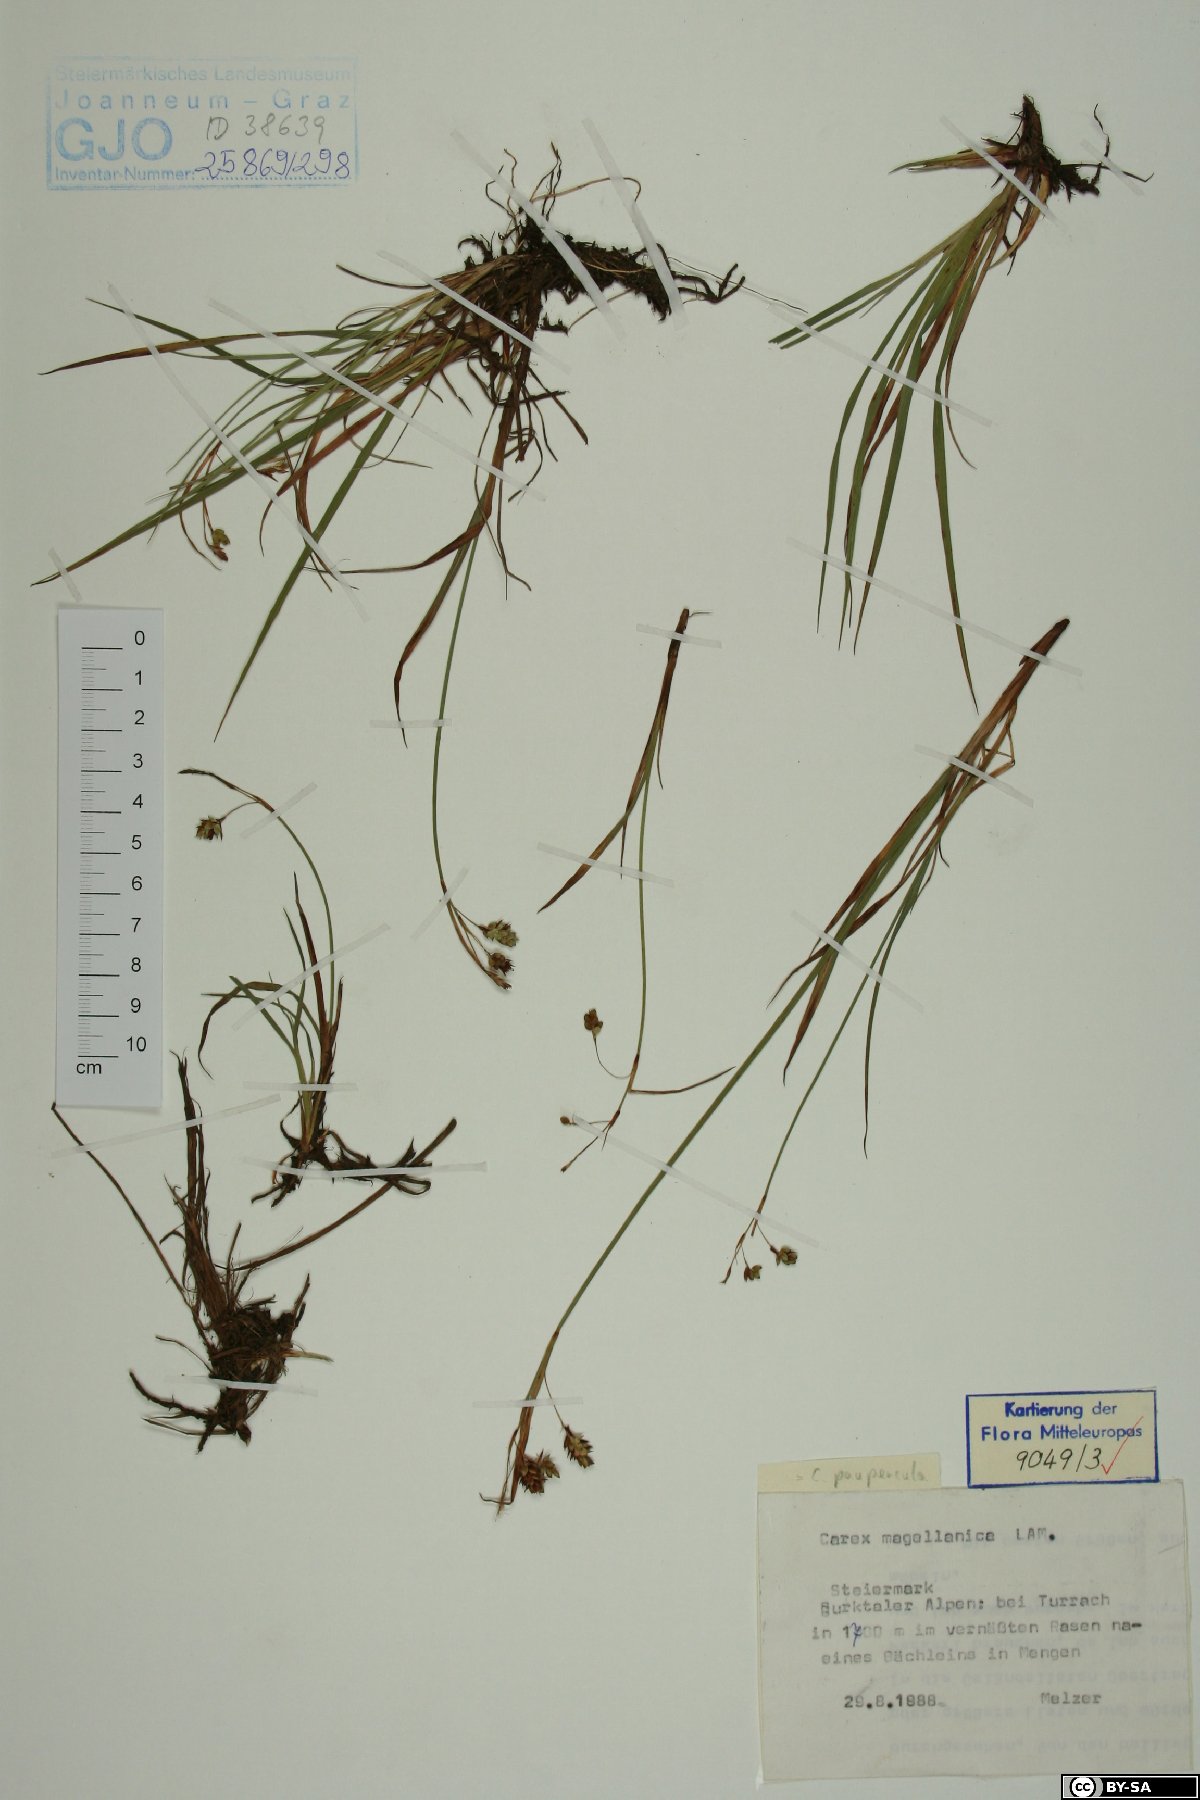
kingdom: Plantae
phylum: Tracheophyta
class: Liliopsida
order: Poales
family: Cyperaceae
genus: Carex
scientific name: Carex magellanica
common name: Bog sedge
